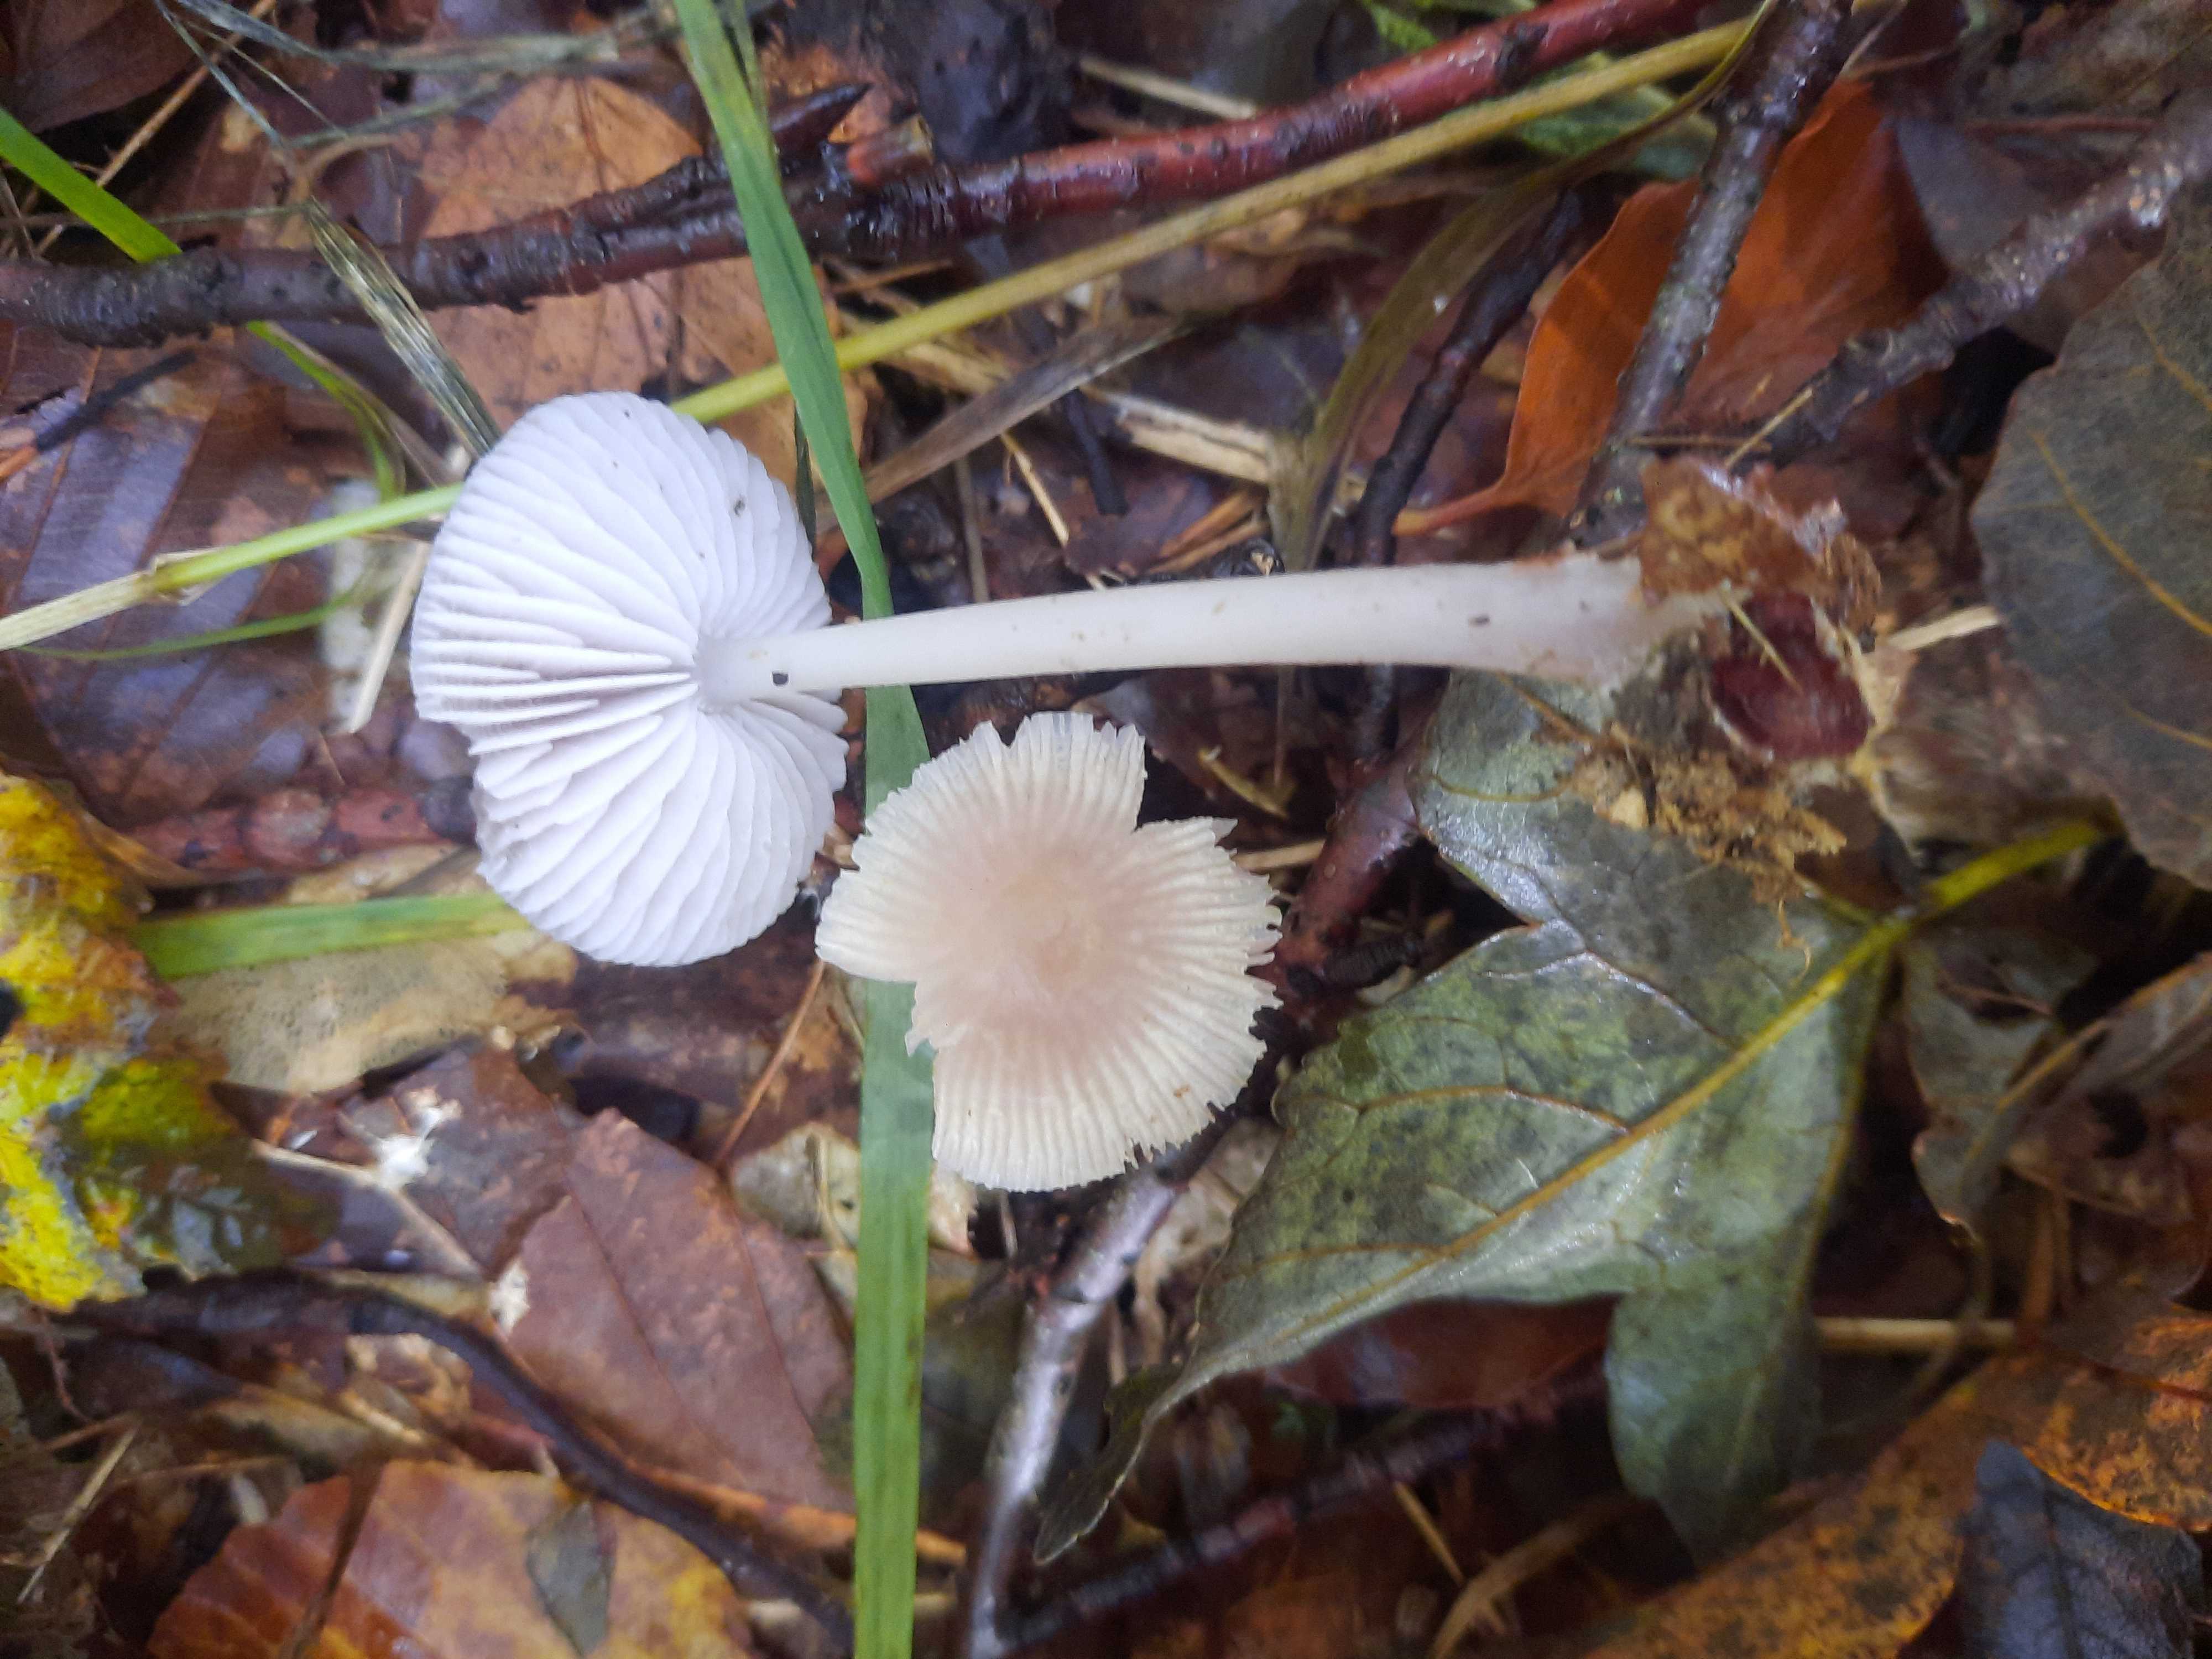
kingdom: Fungi
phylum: Basidiomycota
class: Agaricomycetes
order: Agaricales
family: Mycenaceae
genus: Mycena
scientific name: Mycena
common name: huesvamp
